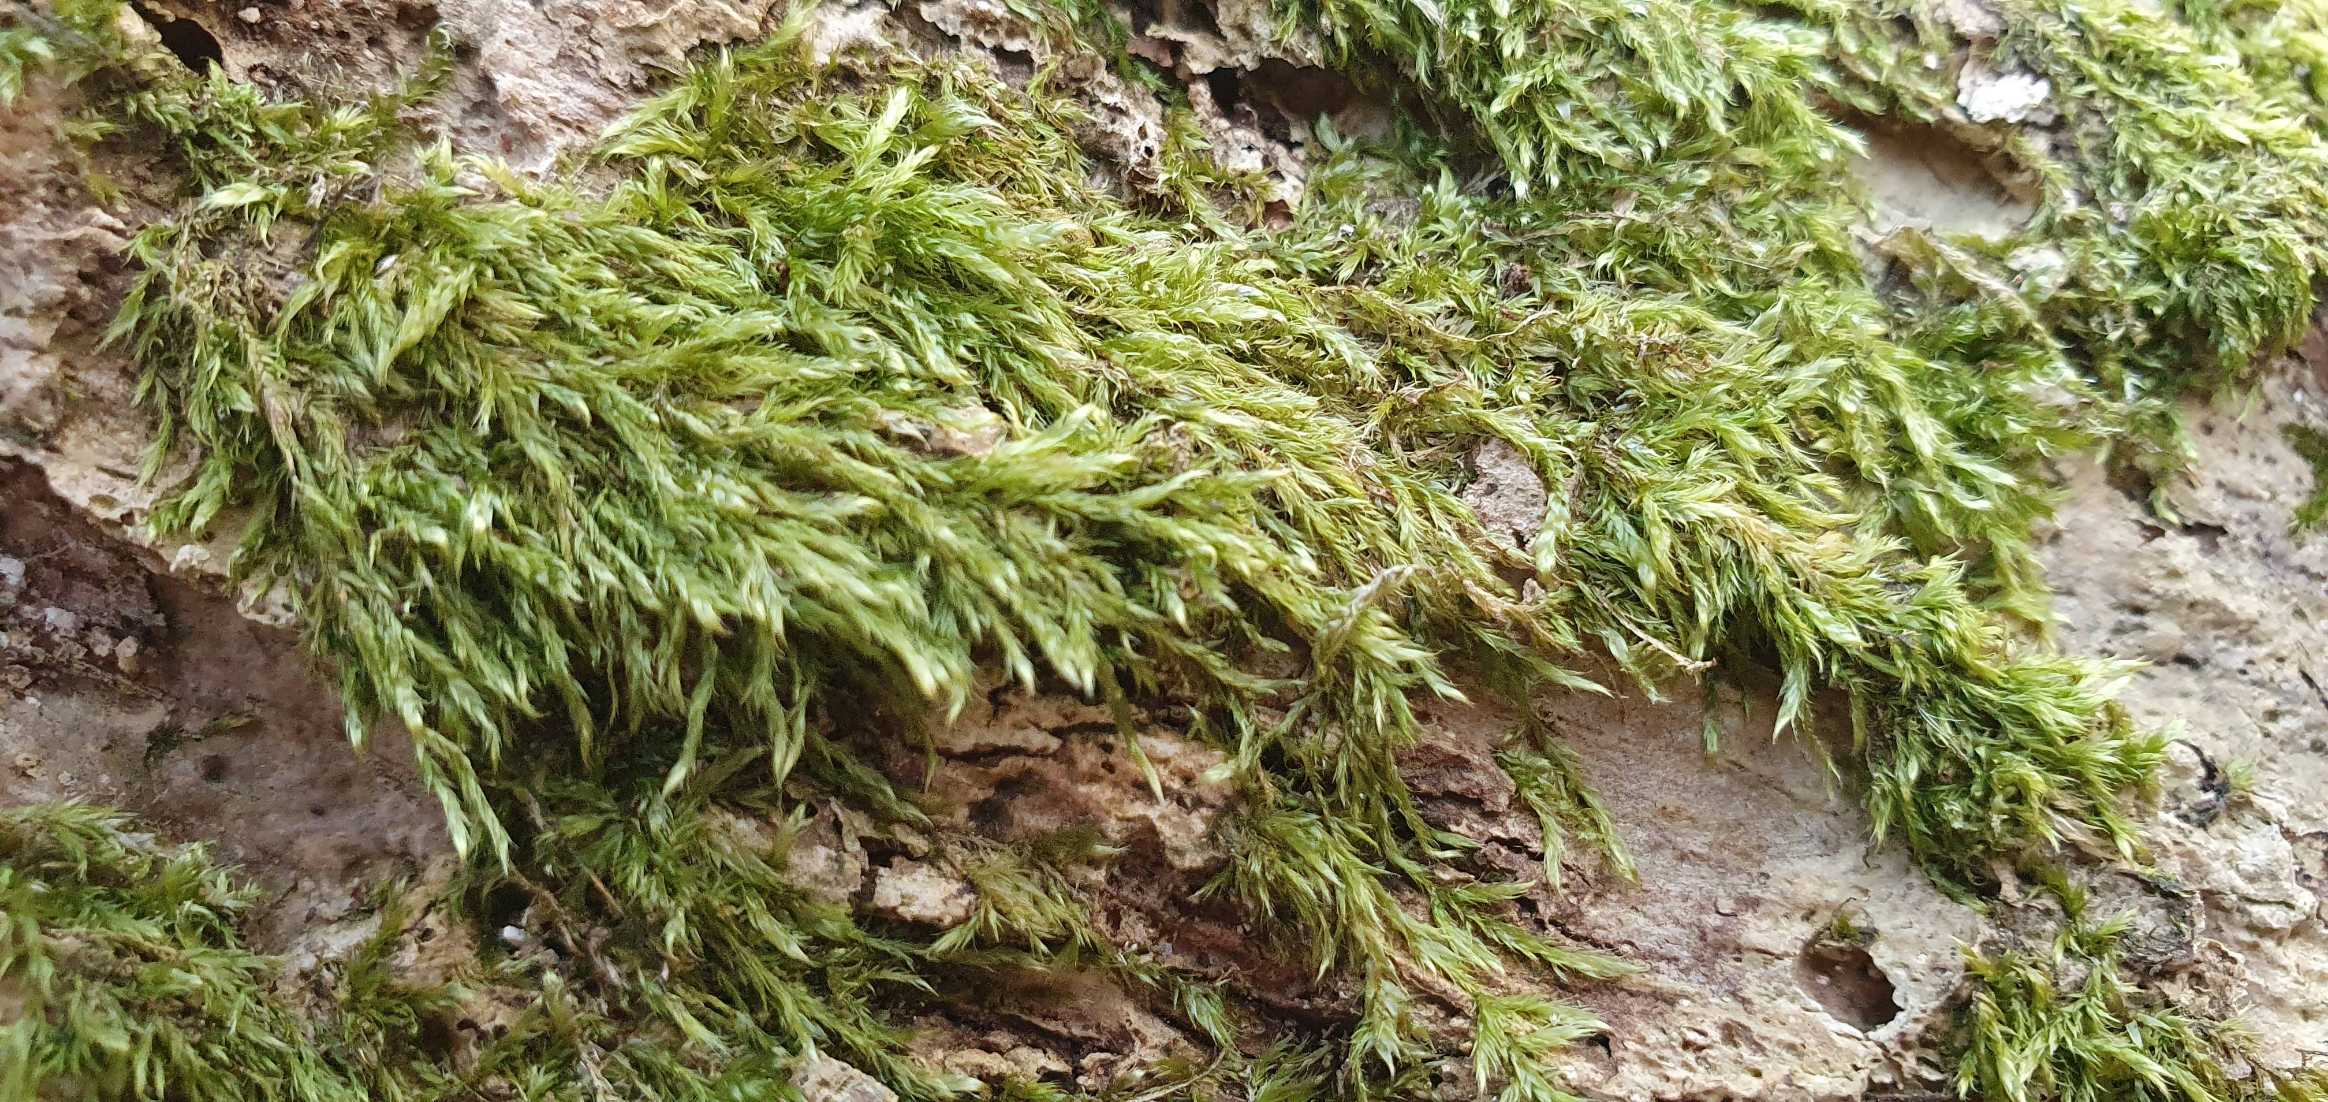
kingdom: Plantae
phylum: Bryophyta
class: Bryopsida
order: Hypnales
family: Hypnaceae
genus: Hypnum
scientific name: Hypnum
